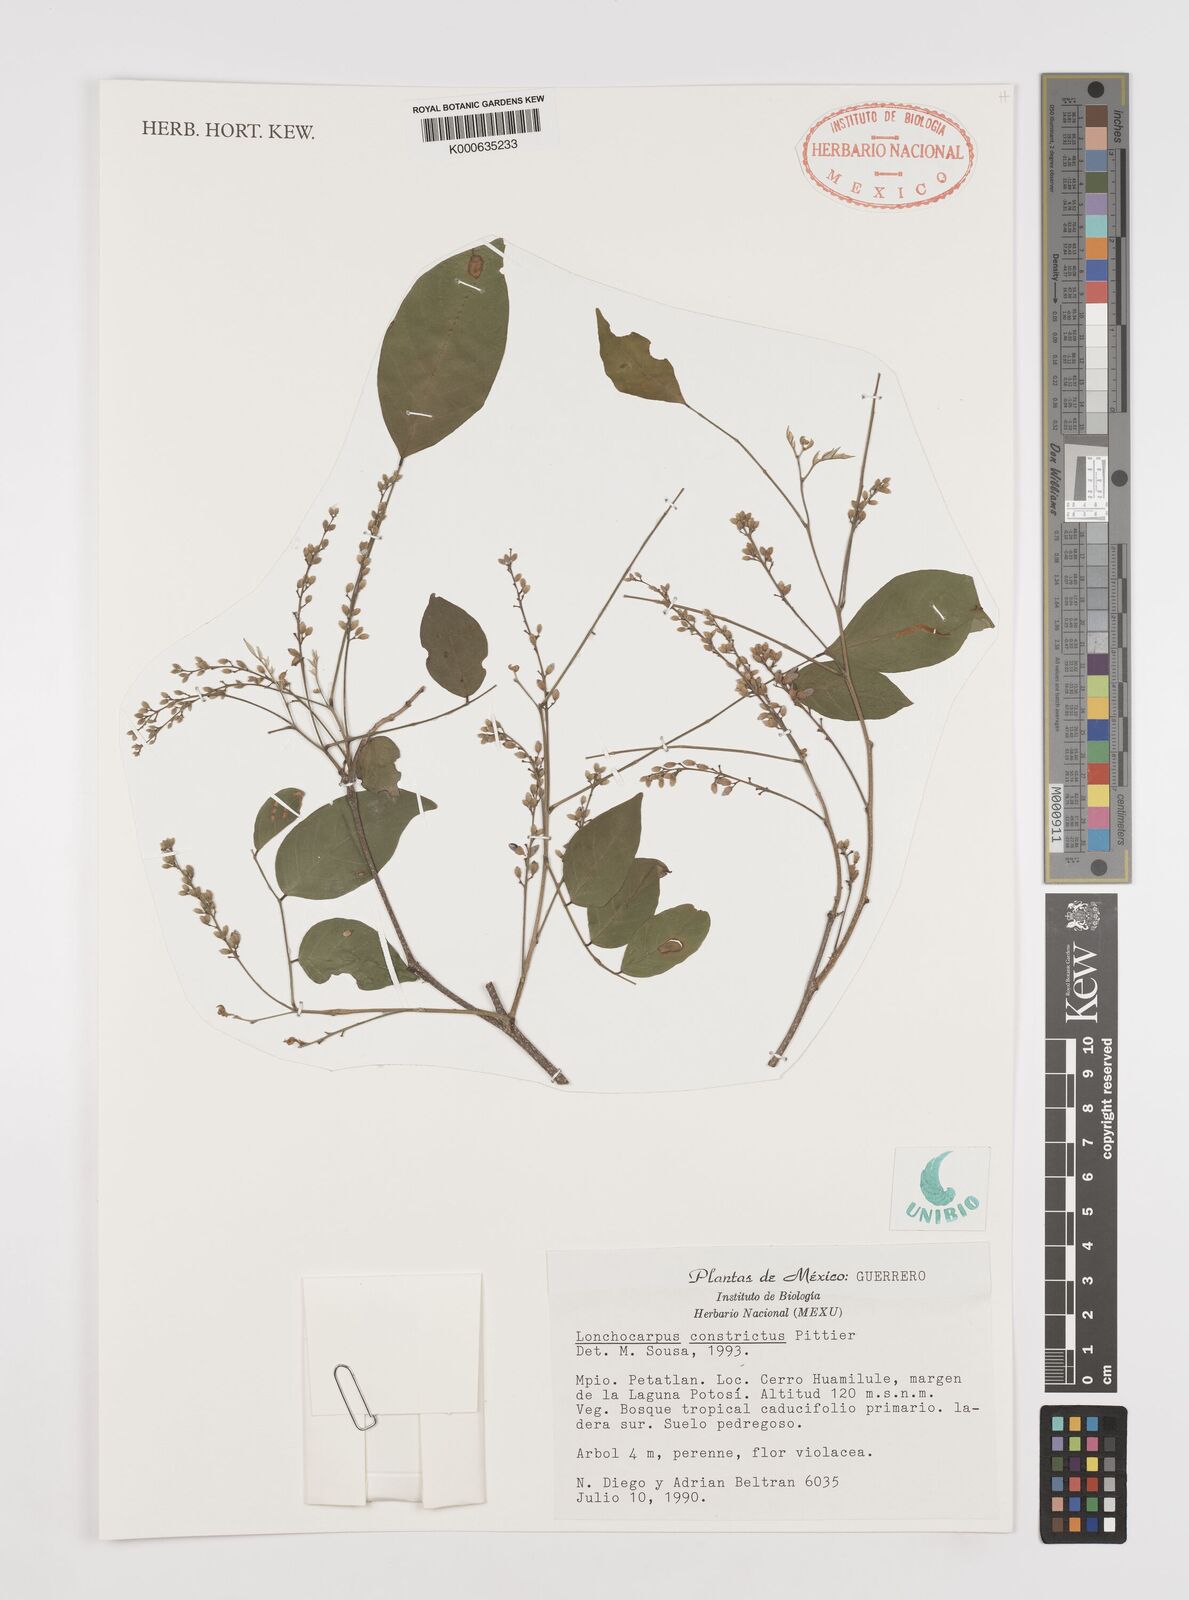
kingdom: Plantae
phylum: Tracheophyta
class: Magnoliopsida
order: Fabales
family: Fabaceae
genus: Lonchocarpus
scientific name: Lonchocarpus constrictus
